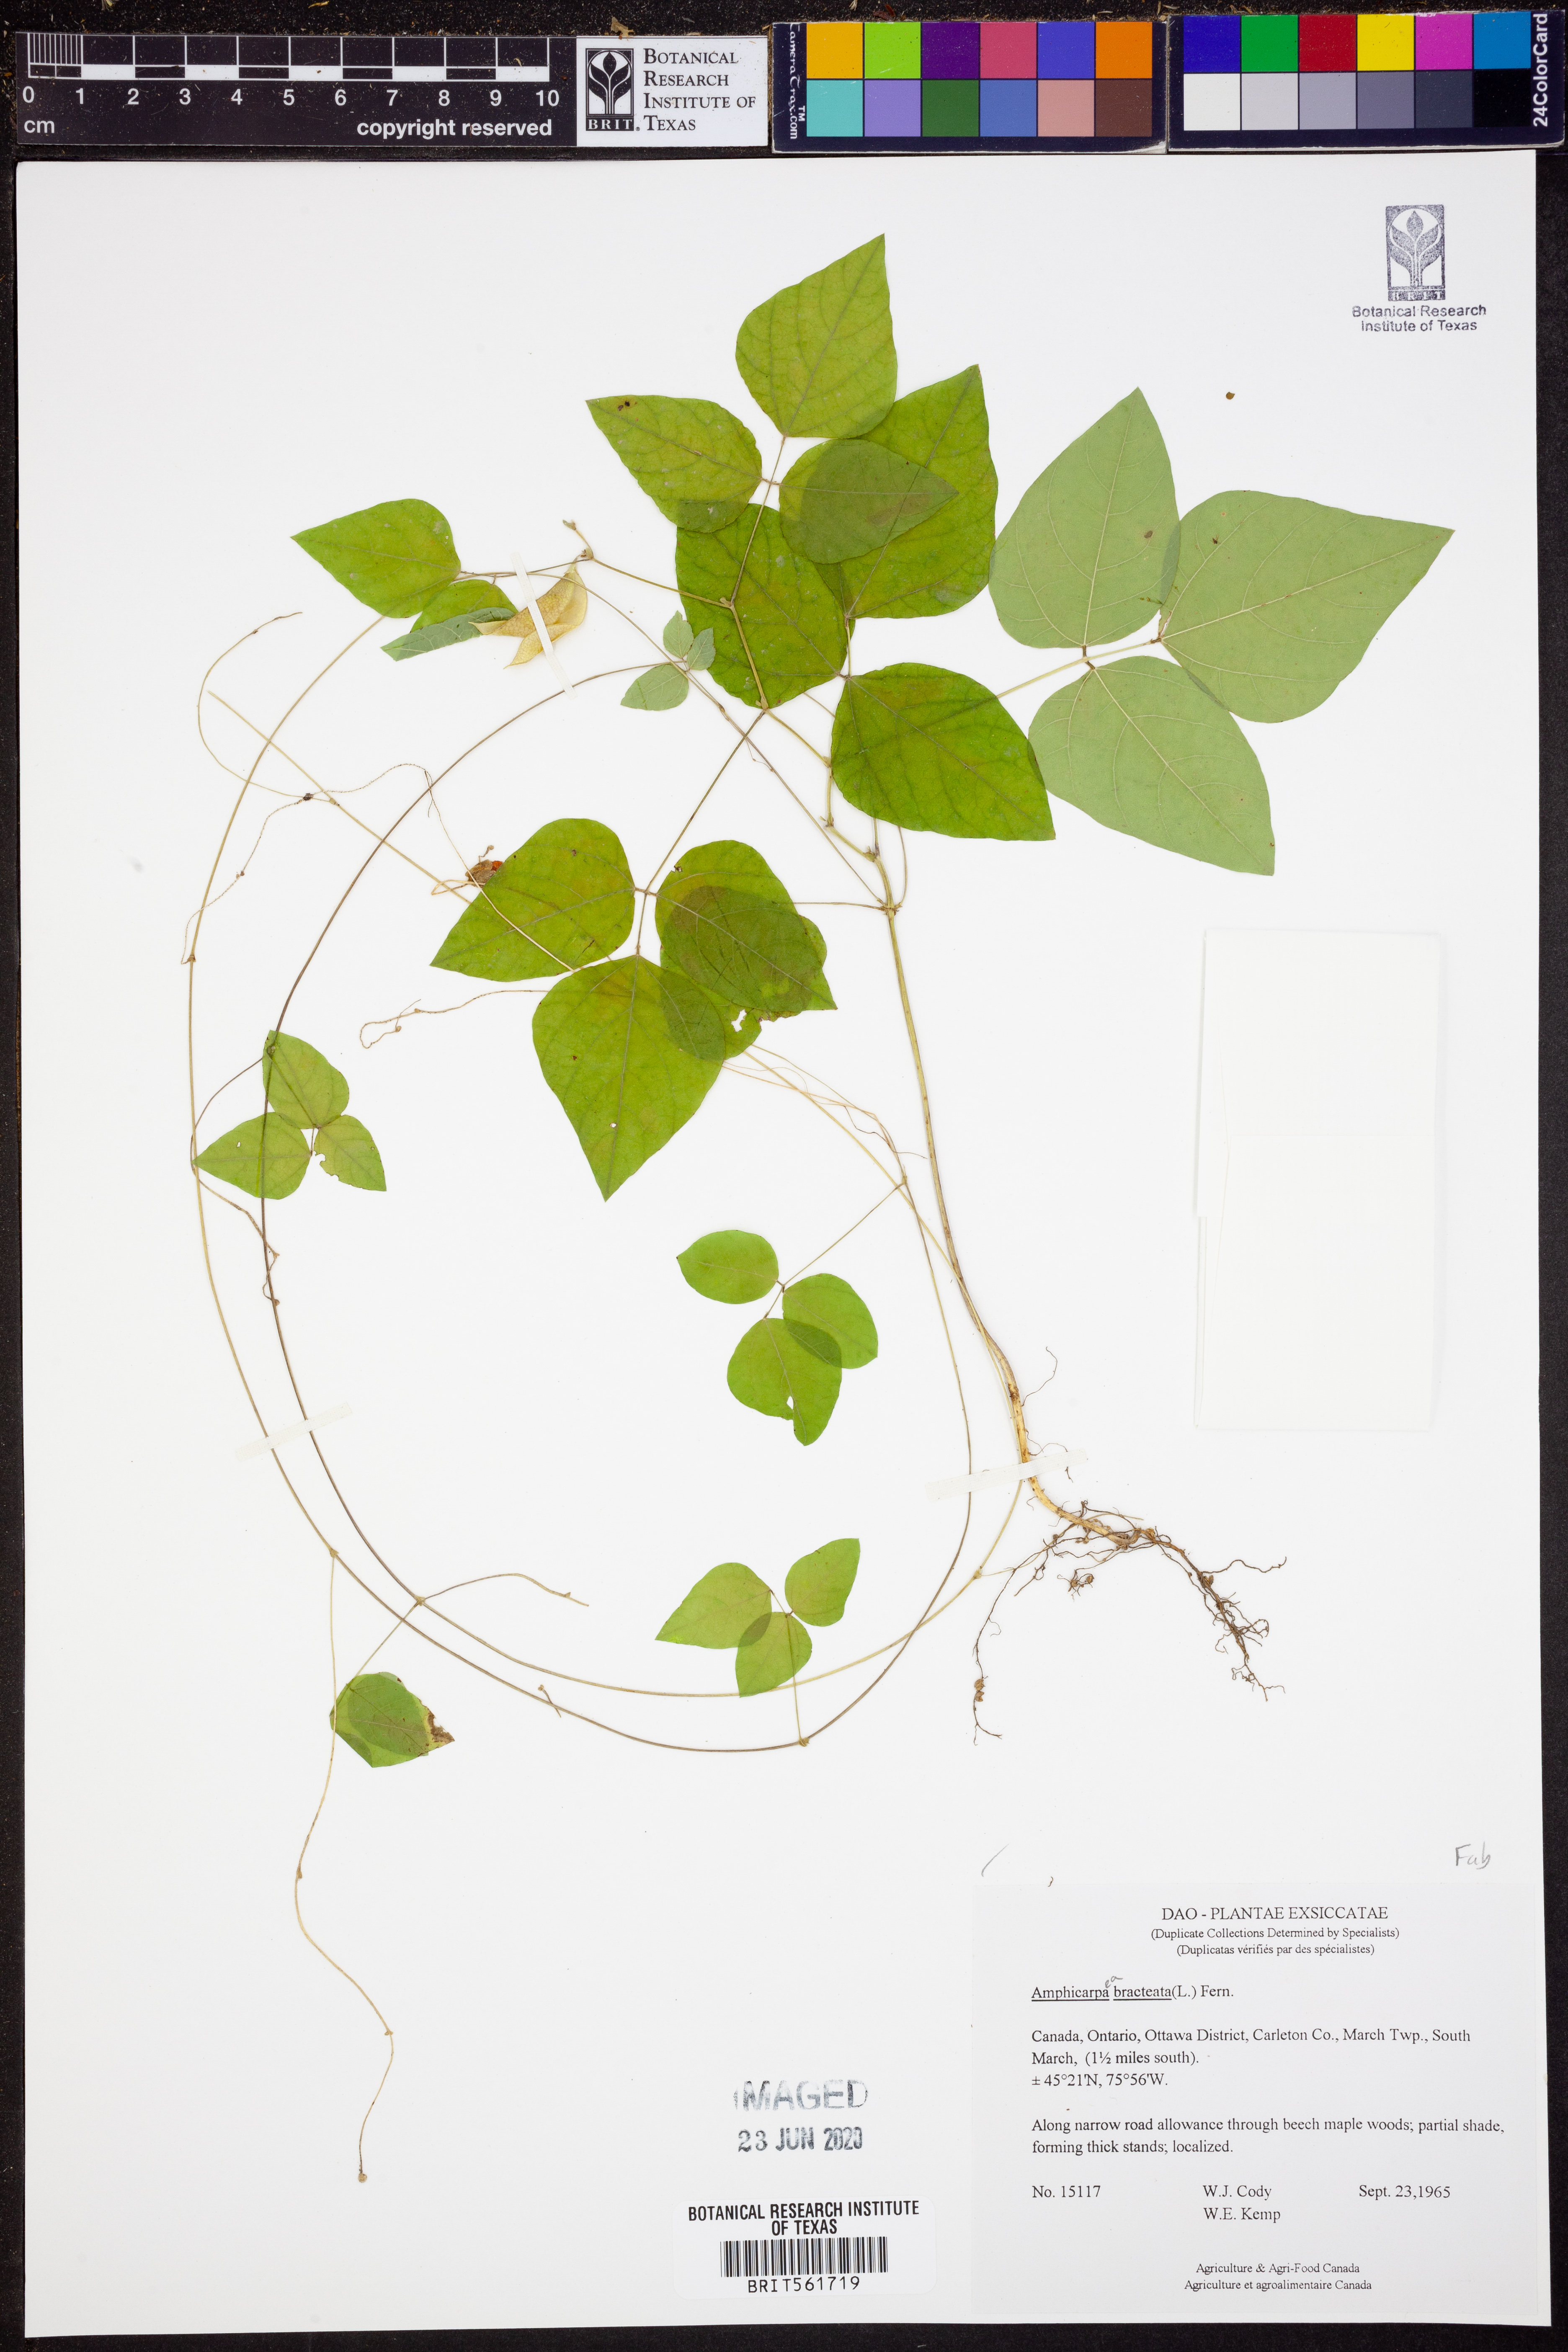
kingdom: Plantae
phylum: Tracheophyta
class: Magnoliopsida
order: Fabales
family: Fabaceae
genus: Amphicarpaea
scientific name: Amphicarpaea bracteata
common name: American hog peanut
